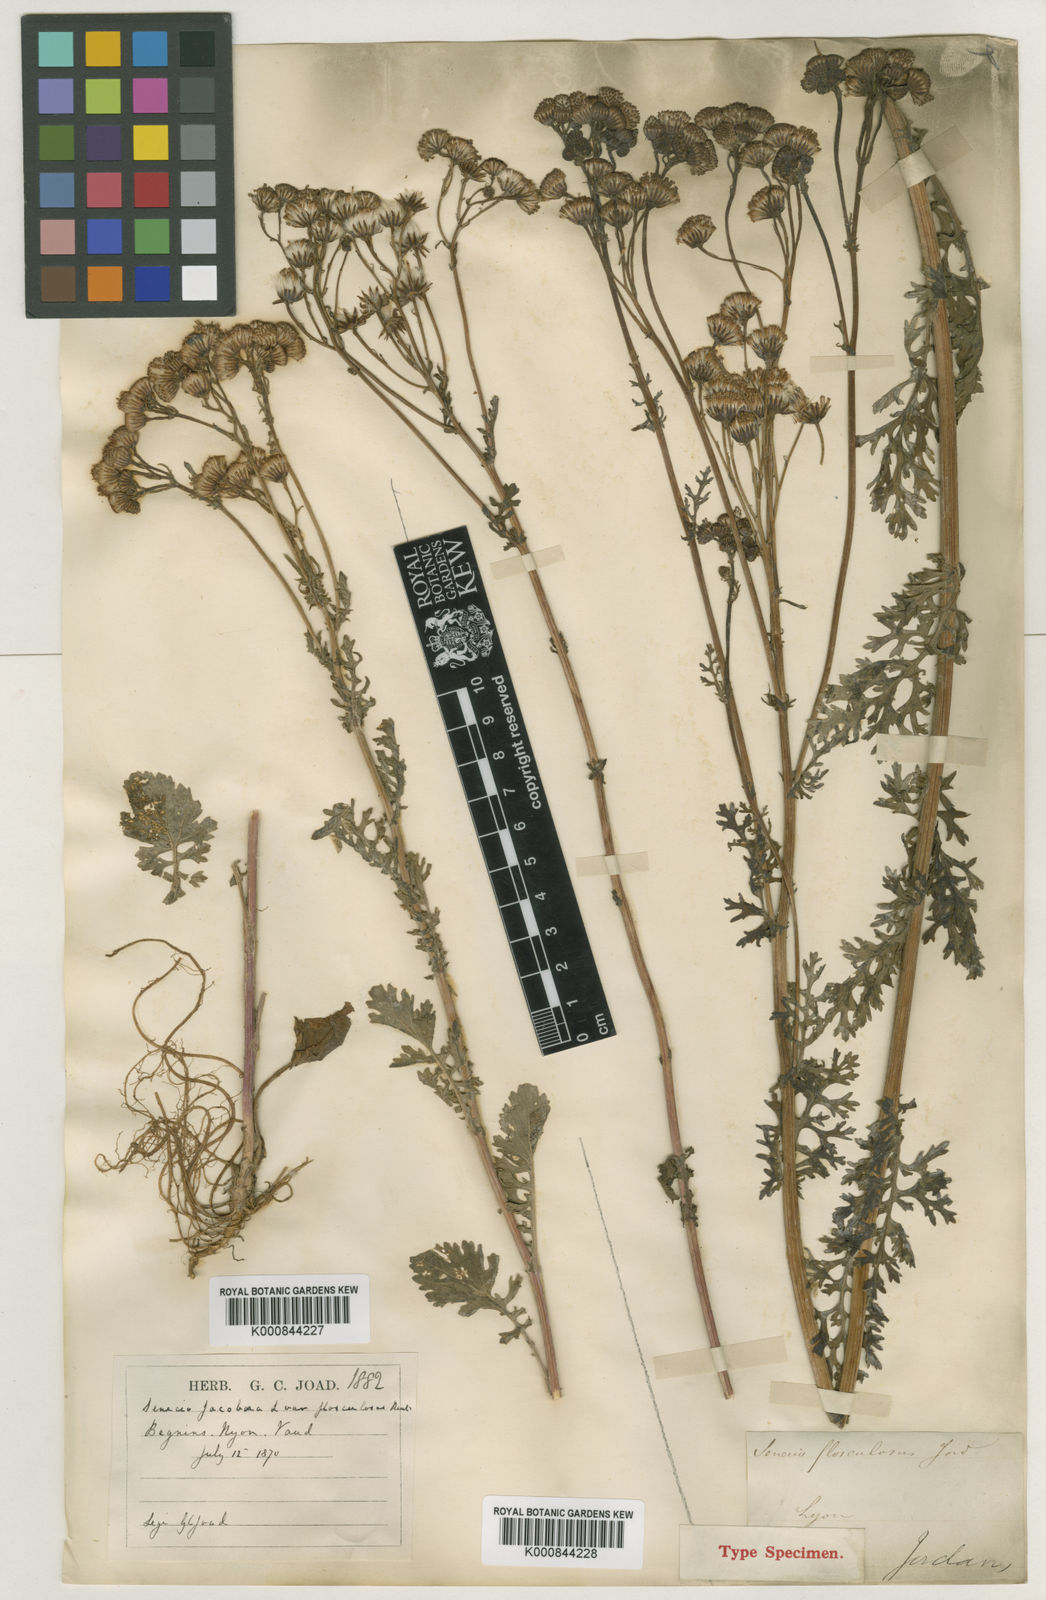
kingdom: Plantae
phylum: Tracheophyta
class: Magnoliopsida
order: Asterales
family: Asteraceae
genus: Jacobaea
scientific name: Jacobaea vulgaris
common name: Stinking willie
